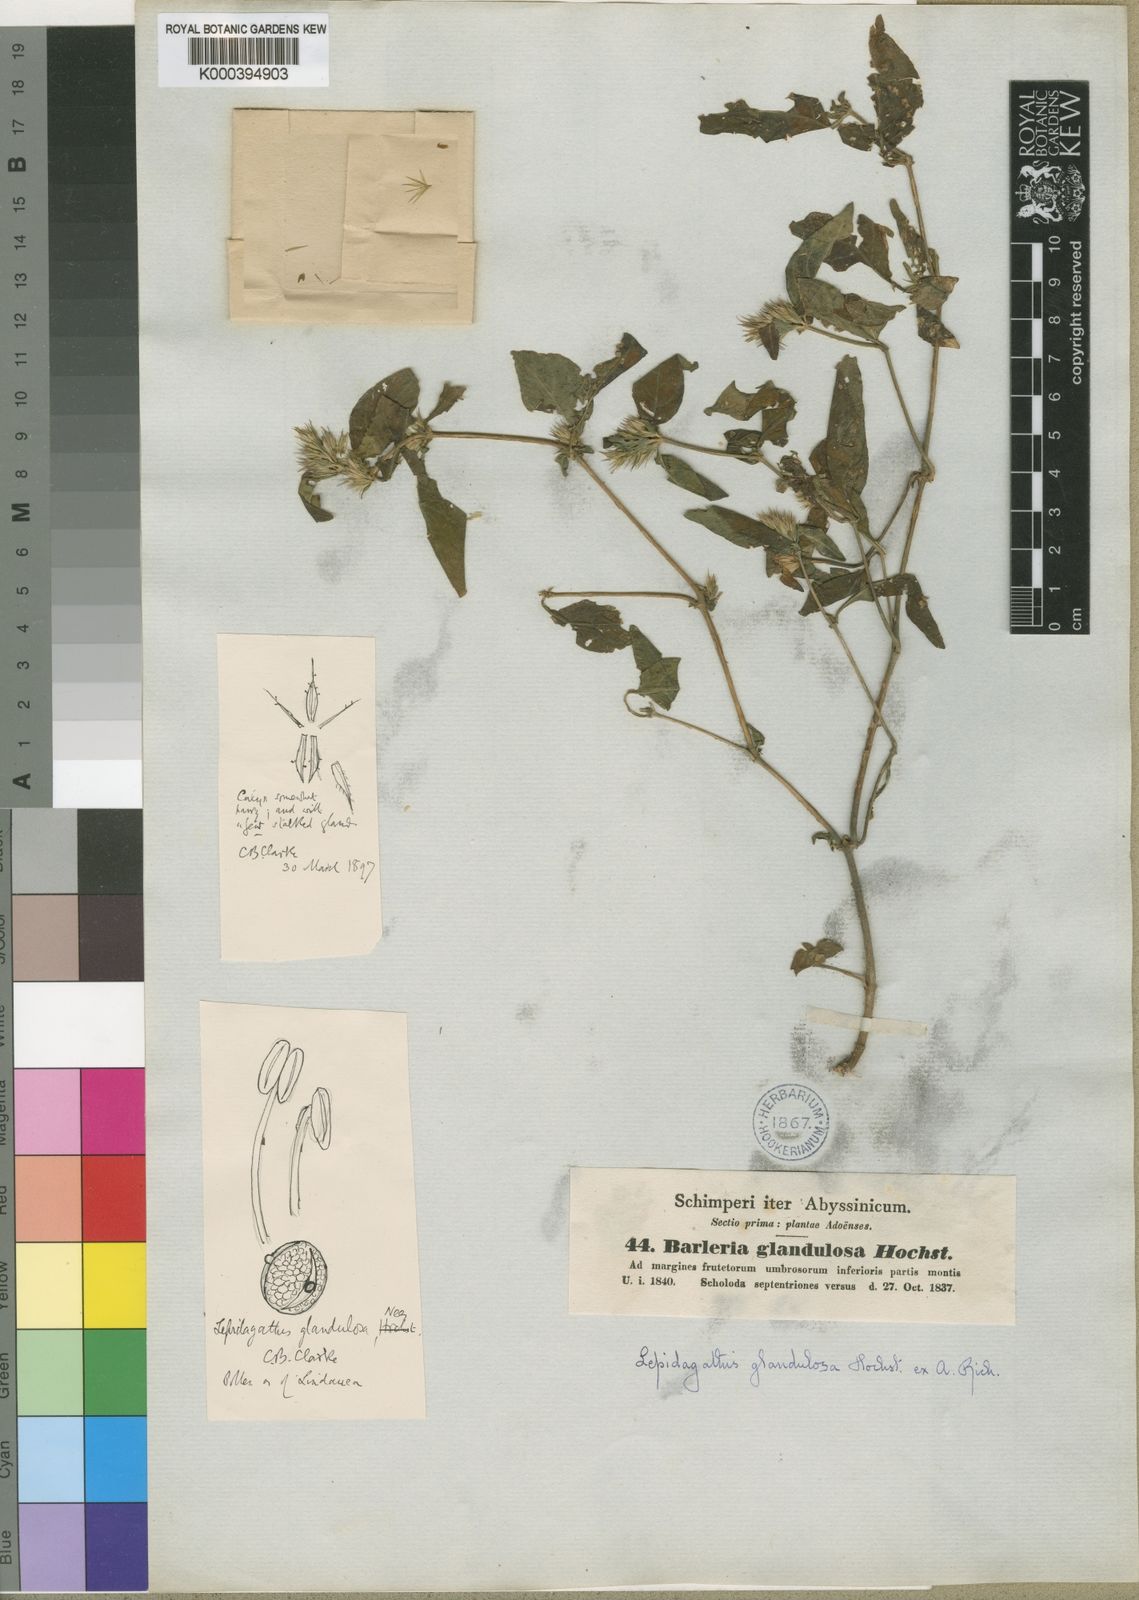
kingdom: Plantae
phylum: Tracheophyta
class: Magnoliopsida
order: Lamiales
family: Acanthaceae
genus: Lepidagathis
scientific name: Lepidagathis
